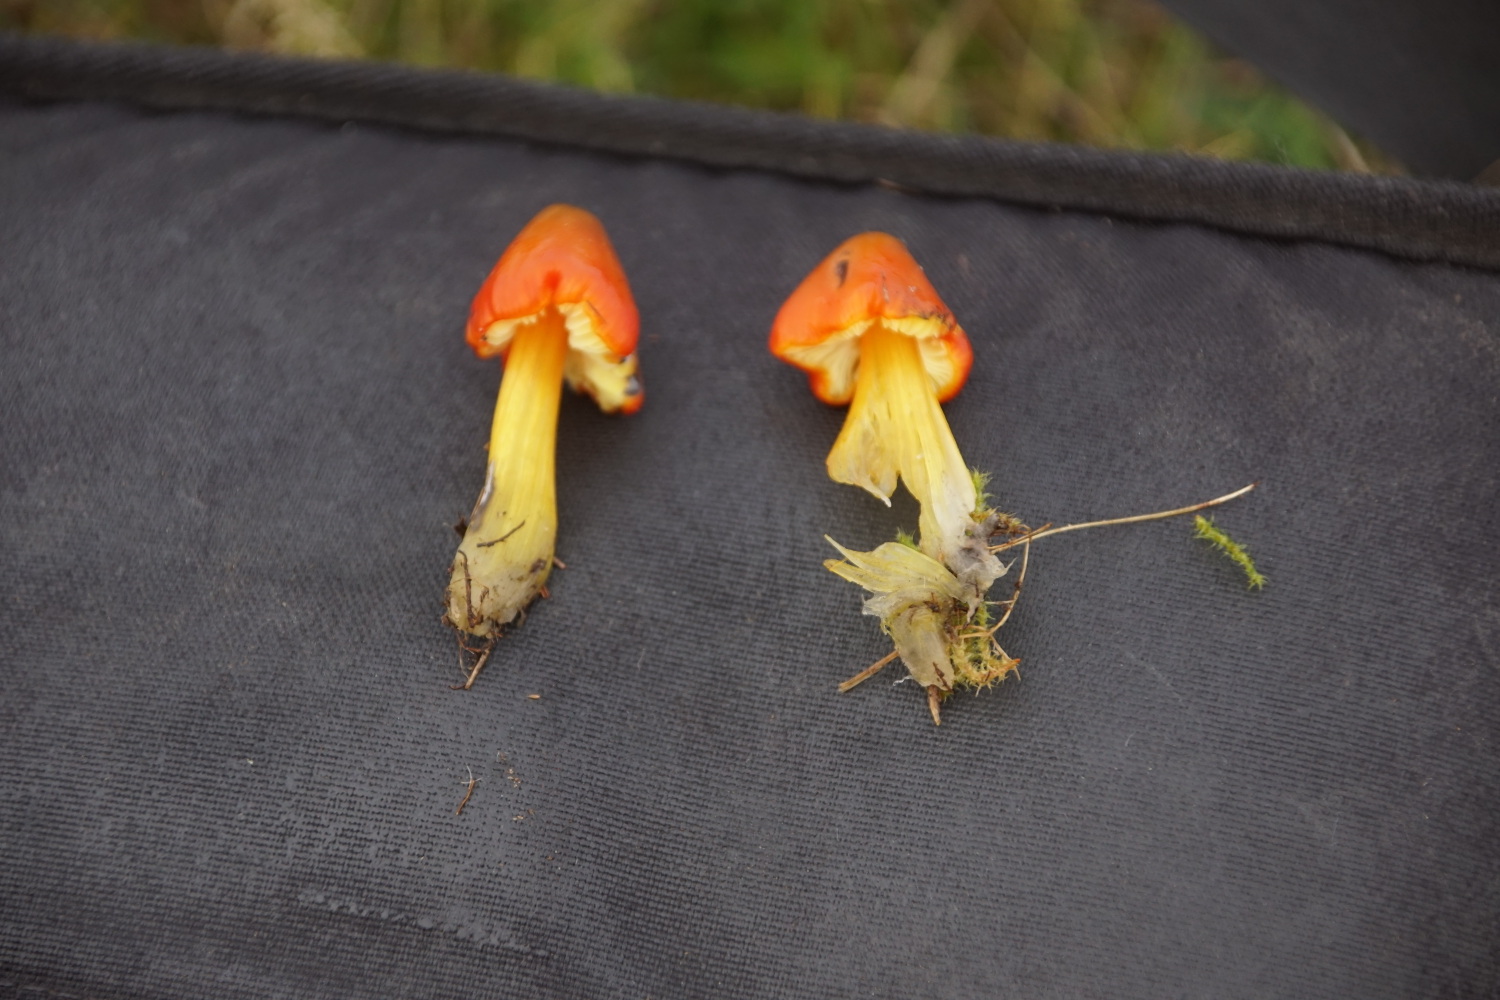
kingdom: Fungi
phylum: Basidiomycota
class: Agaricomycetes
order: Agaricales
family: Hygrophoraceae
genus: Hygrocybe
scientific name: Hygrocybe conica
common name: kegle-vokshat
